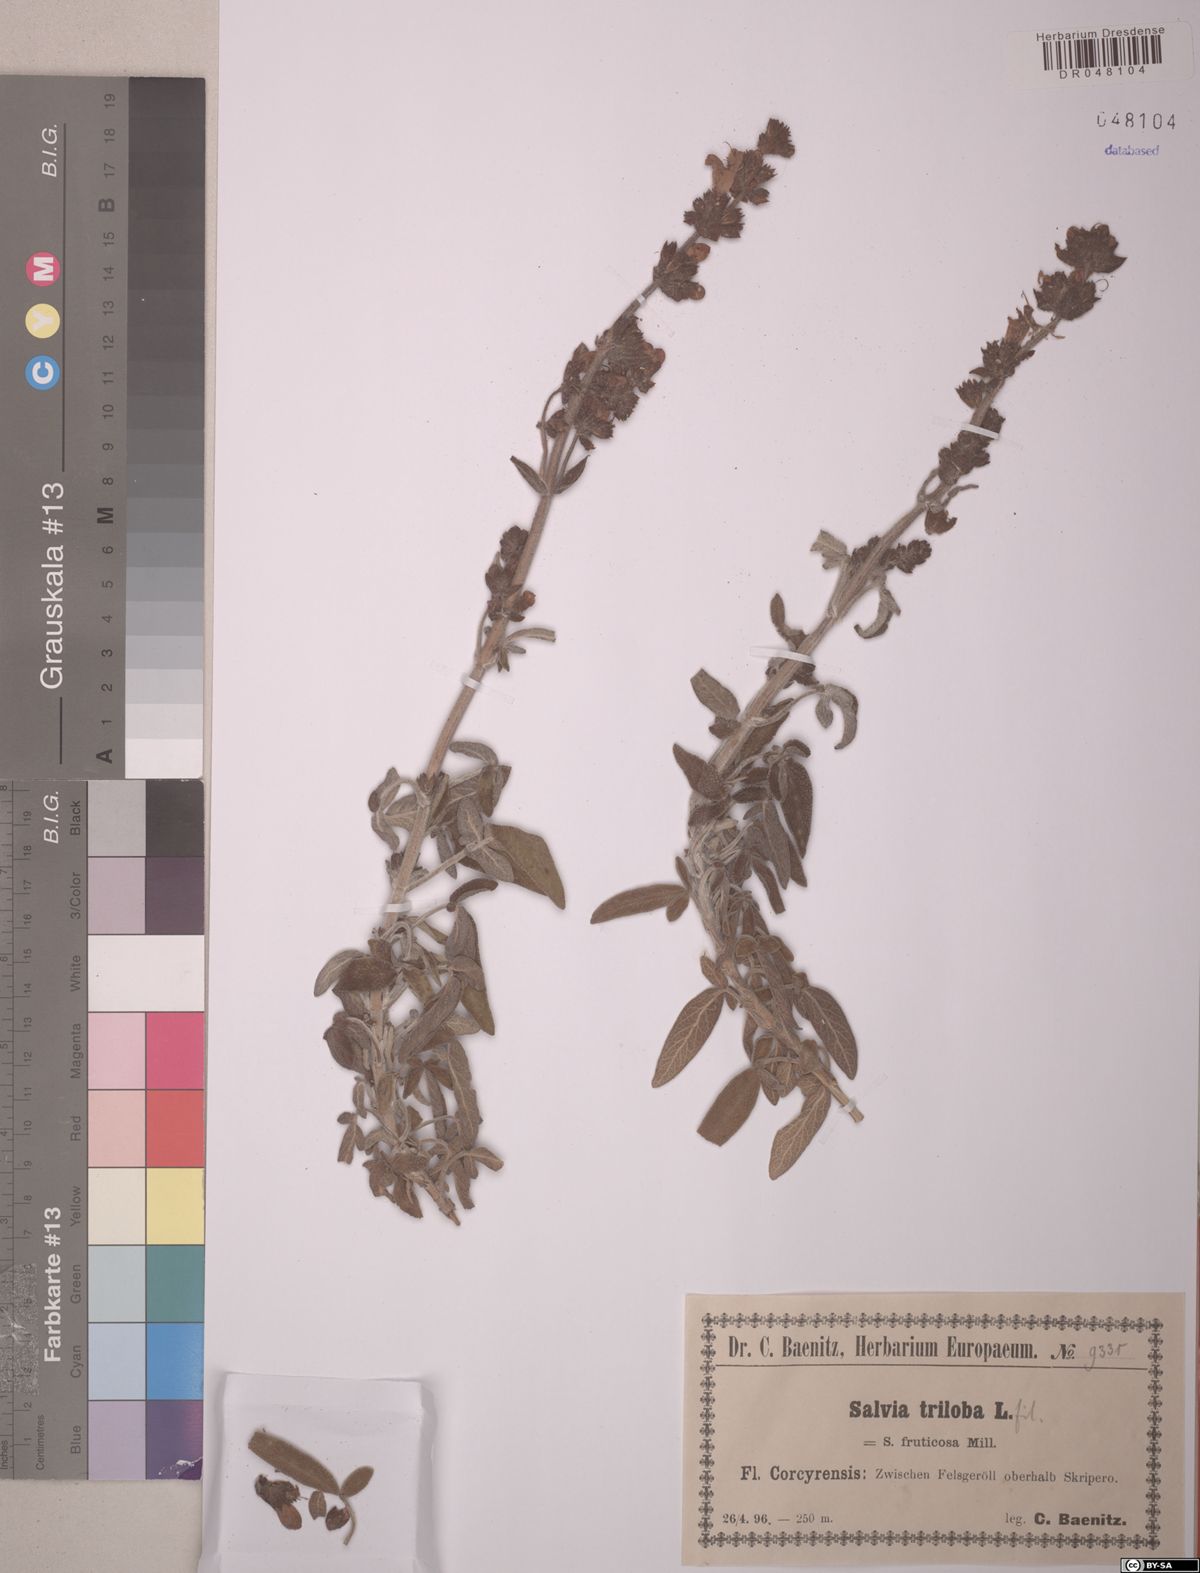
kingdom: Plantae
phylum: Tracheophyta
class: Magnoliopsida
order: Lamiales
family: Lamiaceae
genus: Salvia
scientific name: Salvia fruticosa
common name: Greek sage
